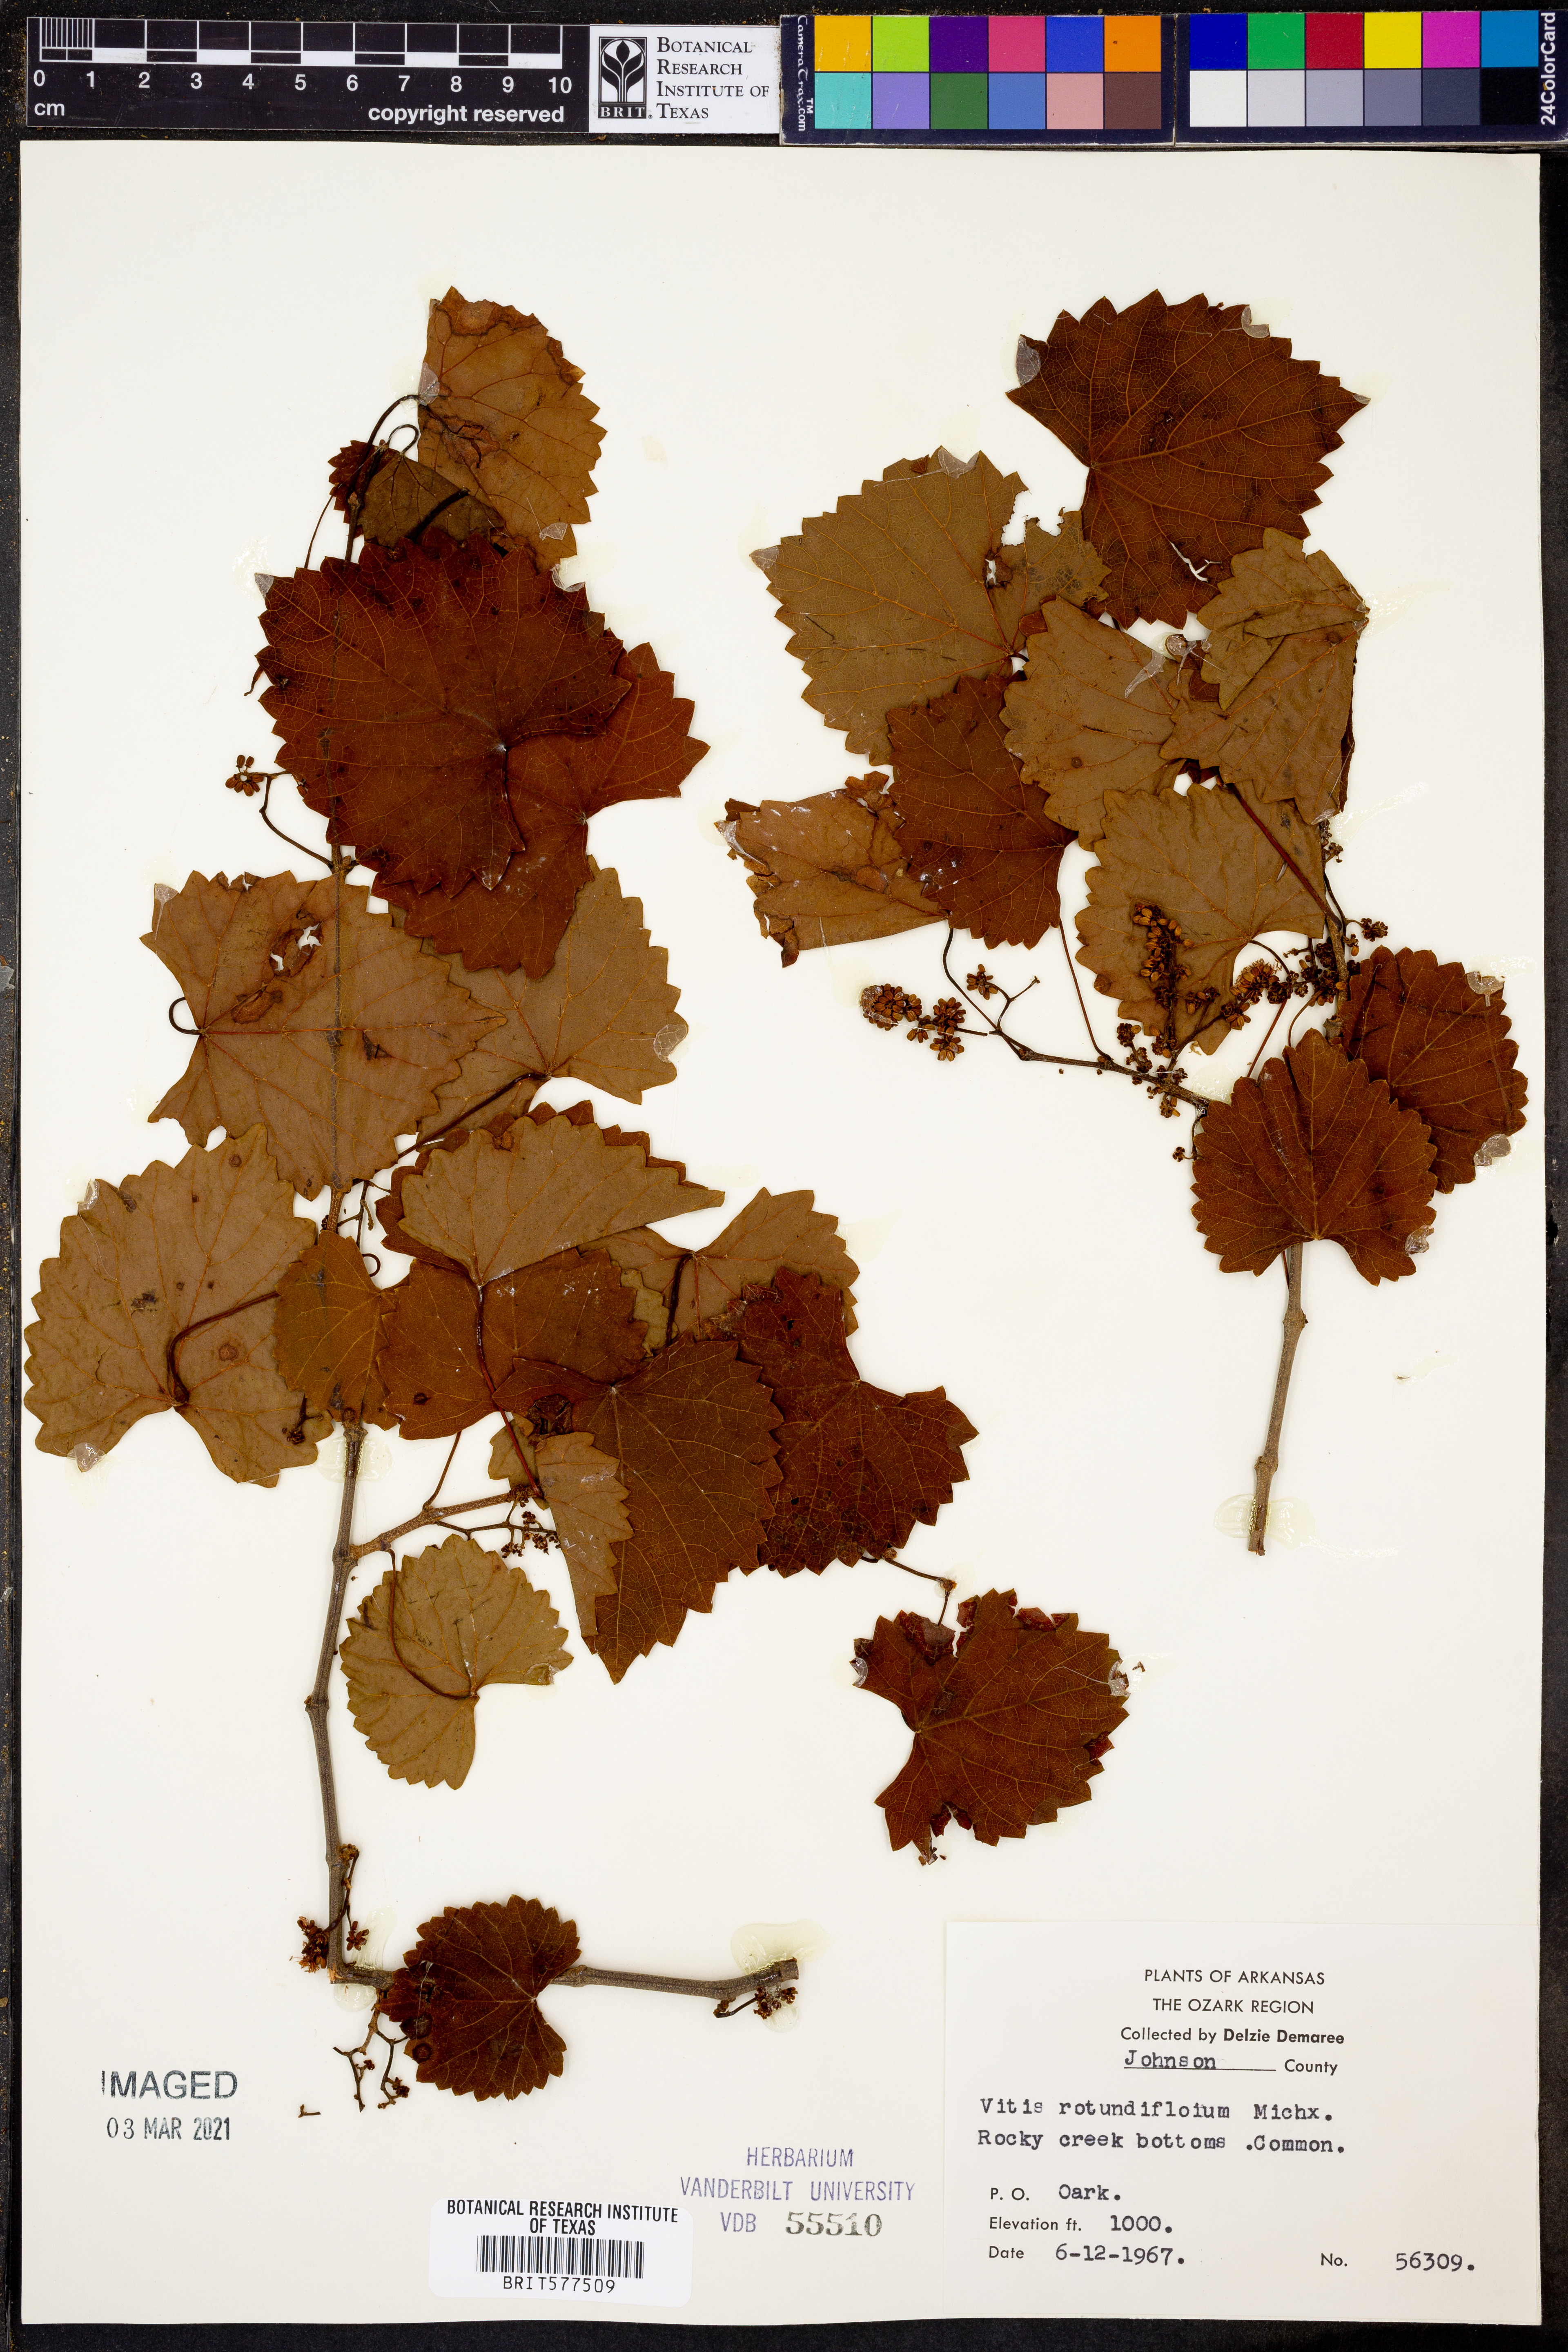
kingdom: Plantae
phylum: Tracheophyta
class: Magnoliopsida
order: Vitales
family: Vitaceae
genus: Vitis
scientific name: Vitis rotundifolia
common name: Muscadine grape
